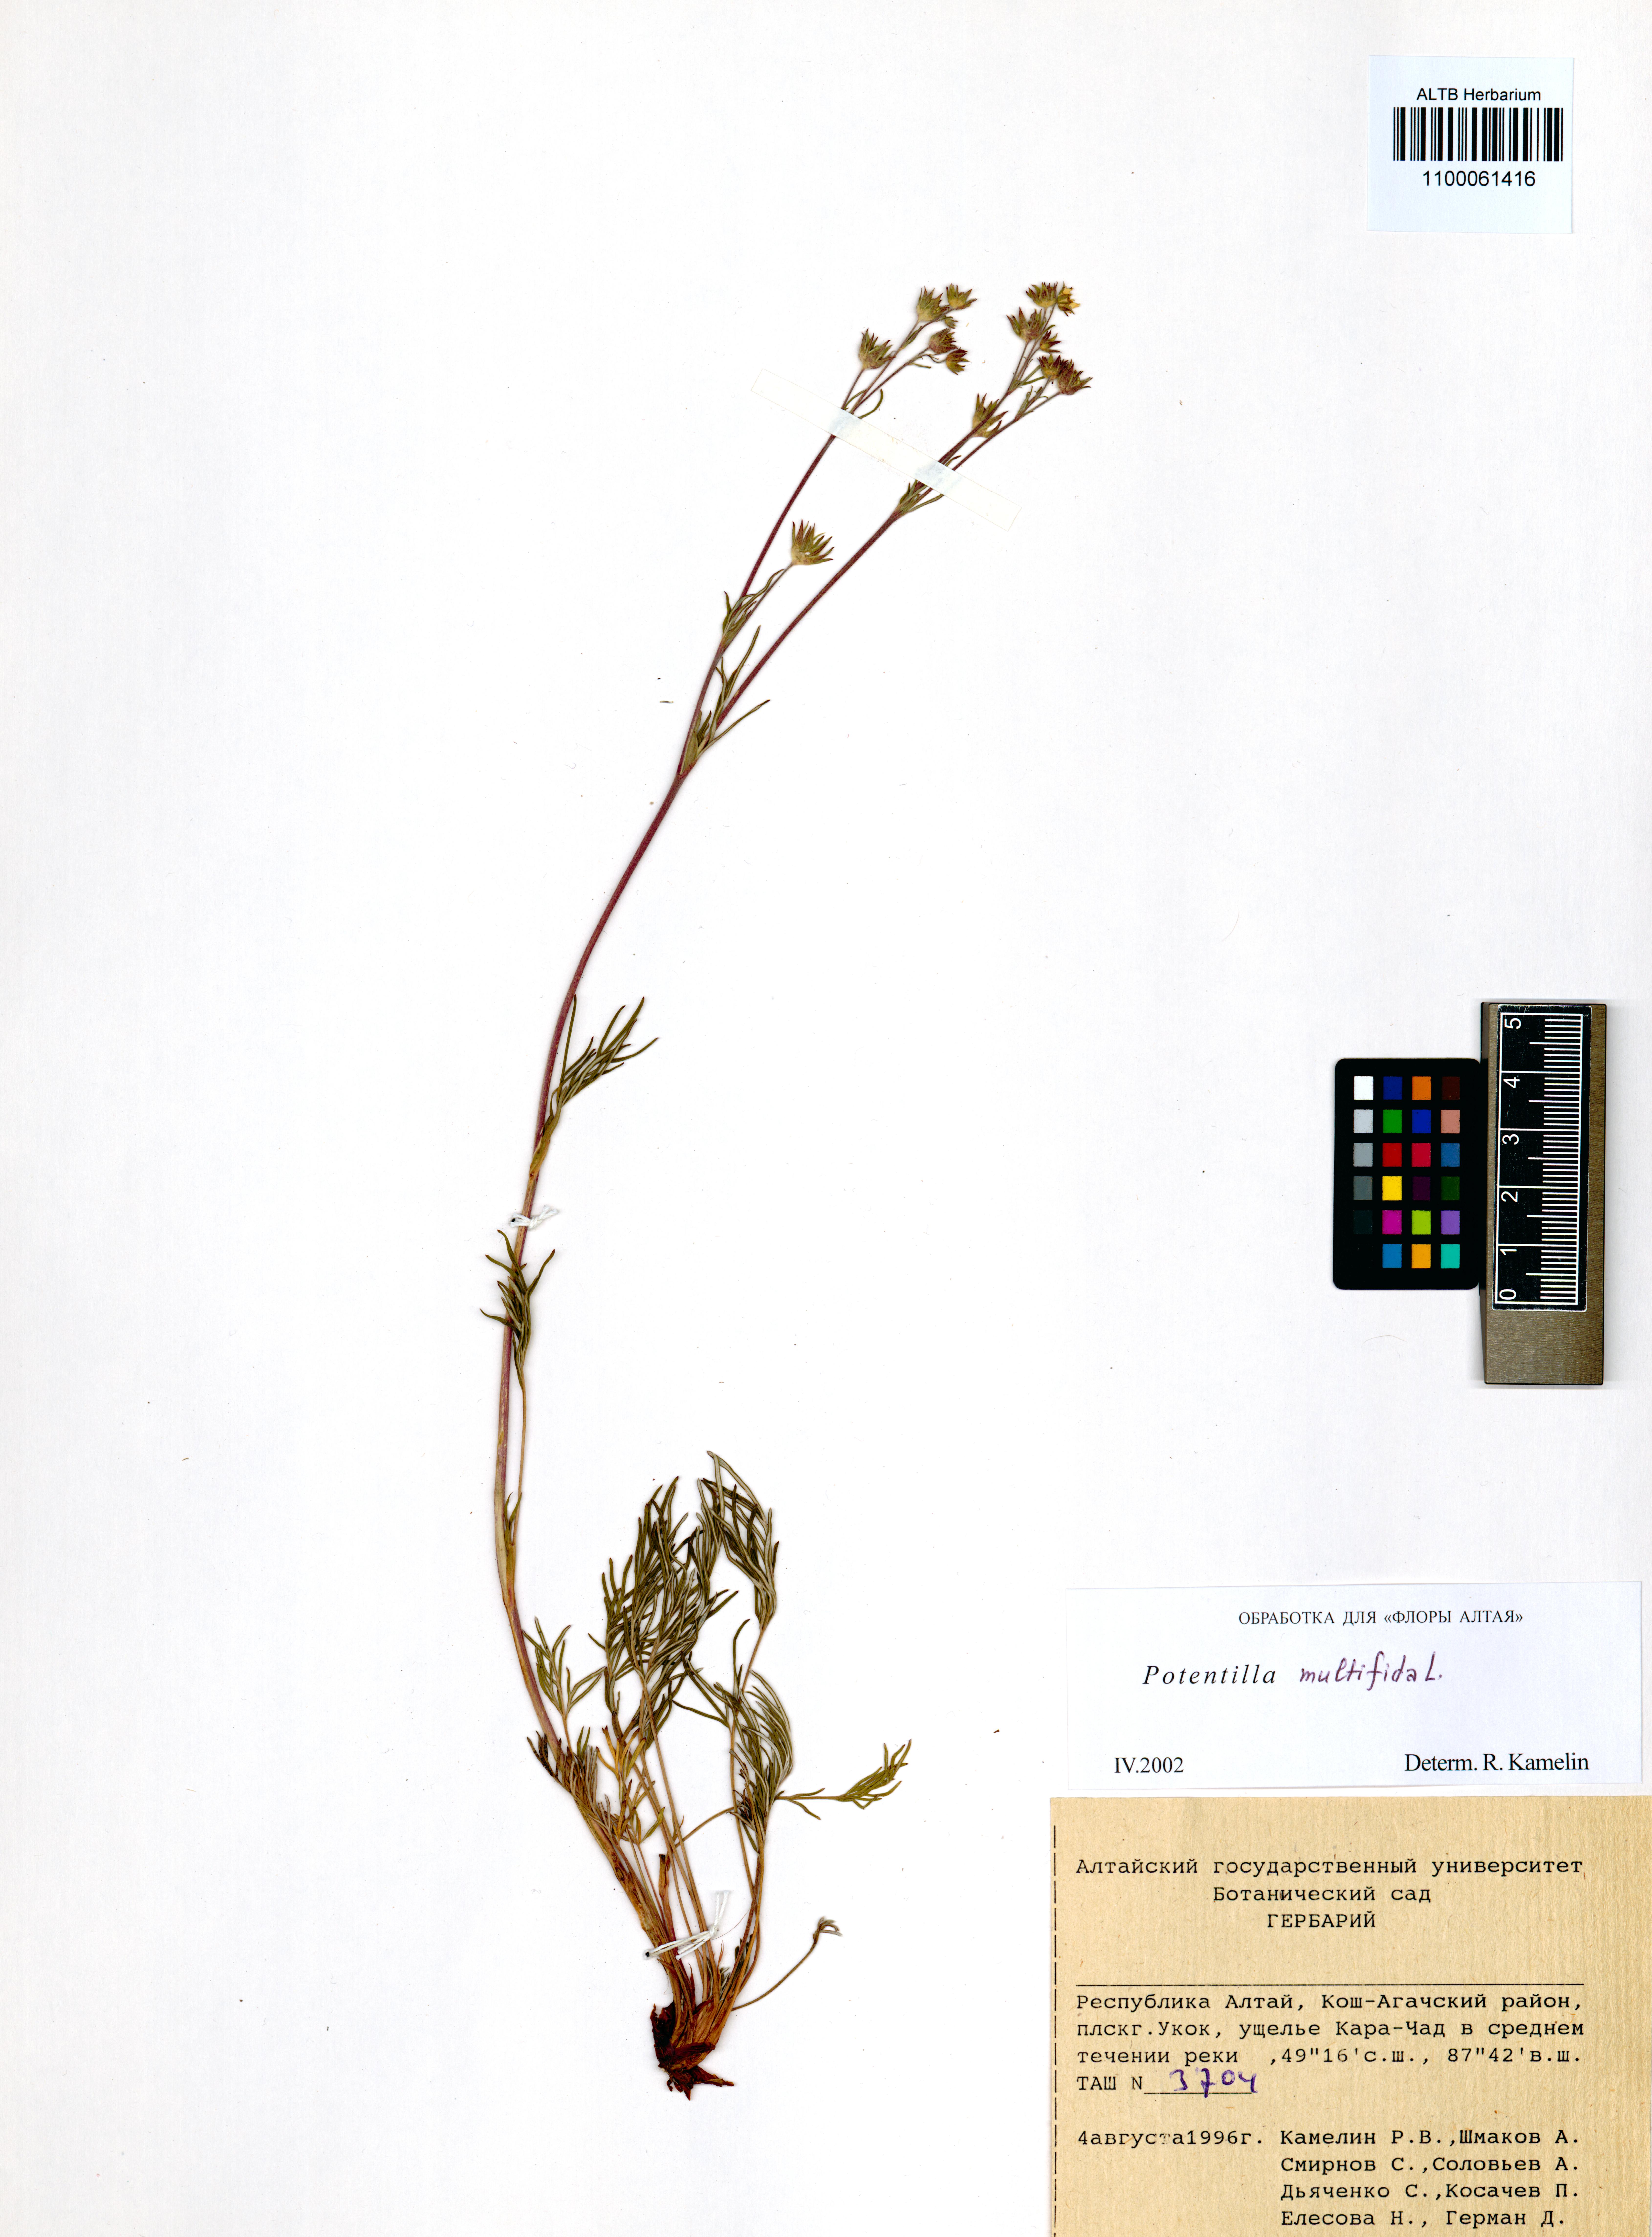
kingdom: Plantae
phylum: Tracheophyta
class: Magnoliopsida
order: Rosales
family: Rosaceae
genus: Potentilla
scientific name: Potentilla multifida
